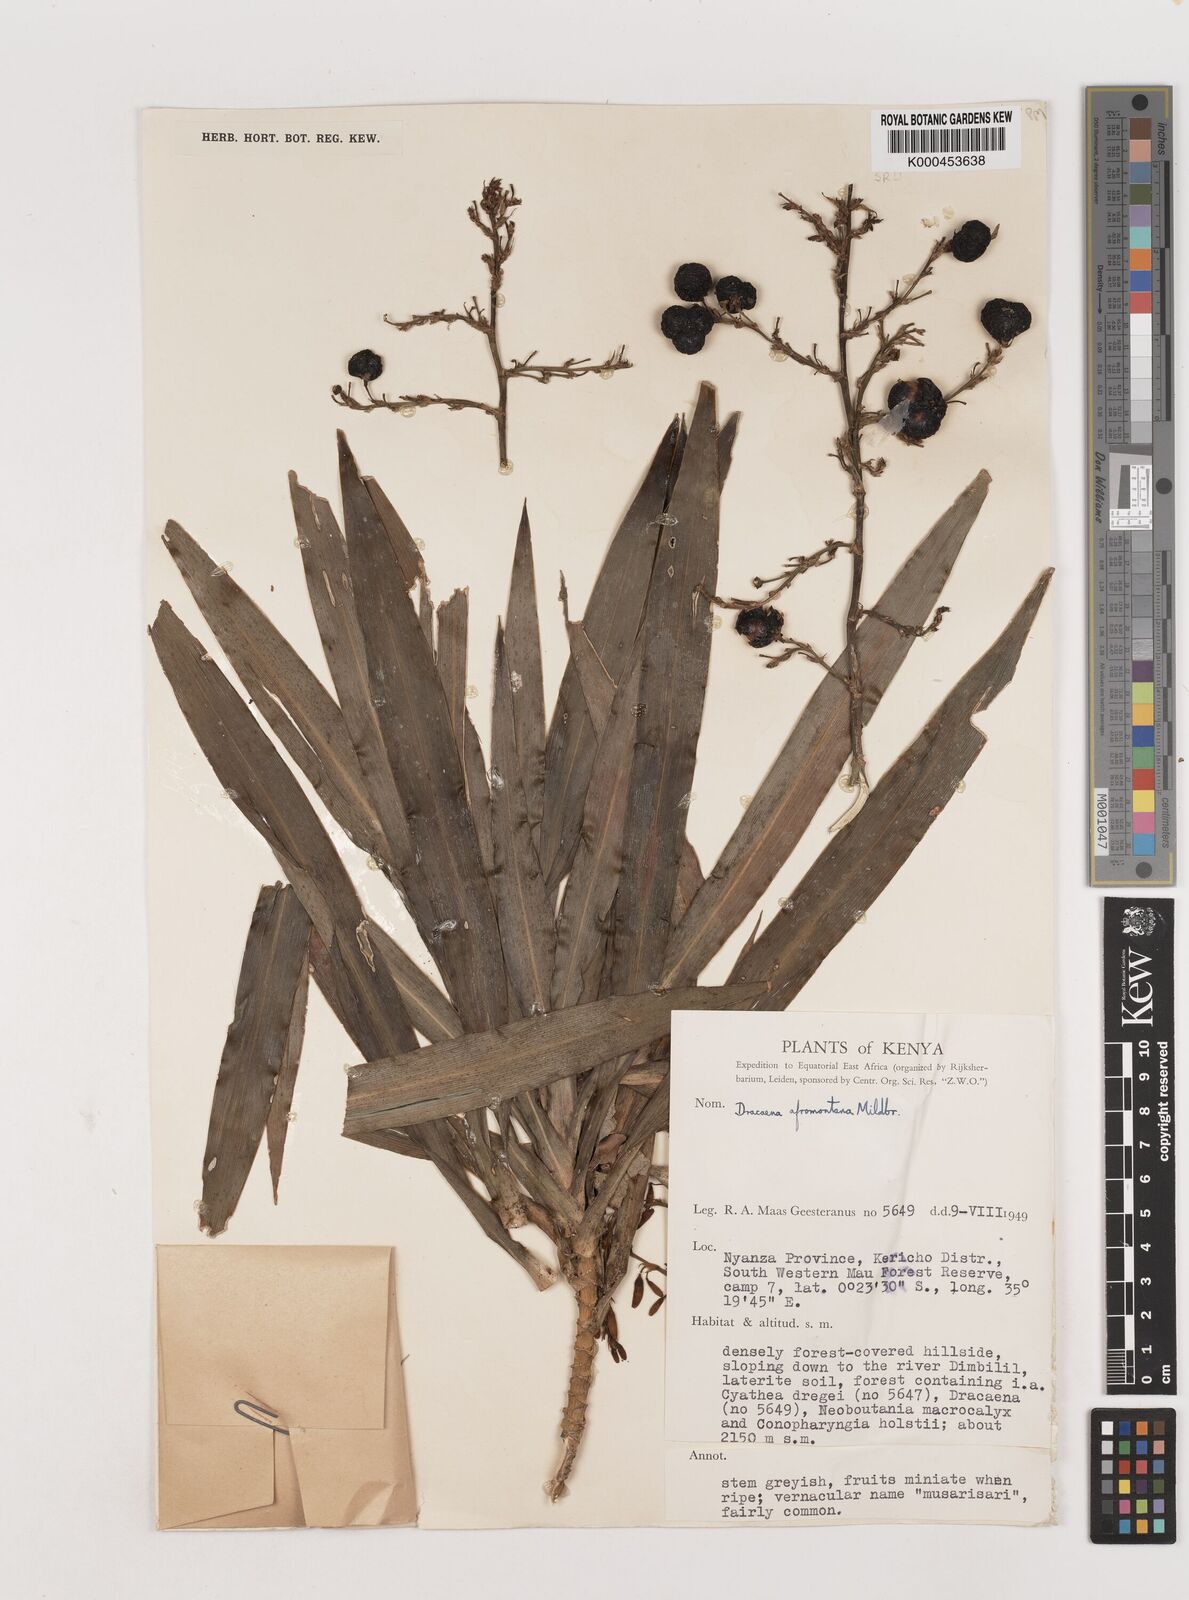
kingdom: Plantae
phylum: Tracheophyta
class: Liliopsida
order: Asparagales
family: Asparagaceae
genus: Dracaena
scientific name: Dracaena afromontana
